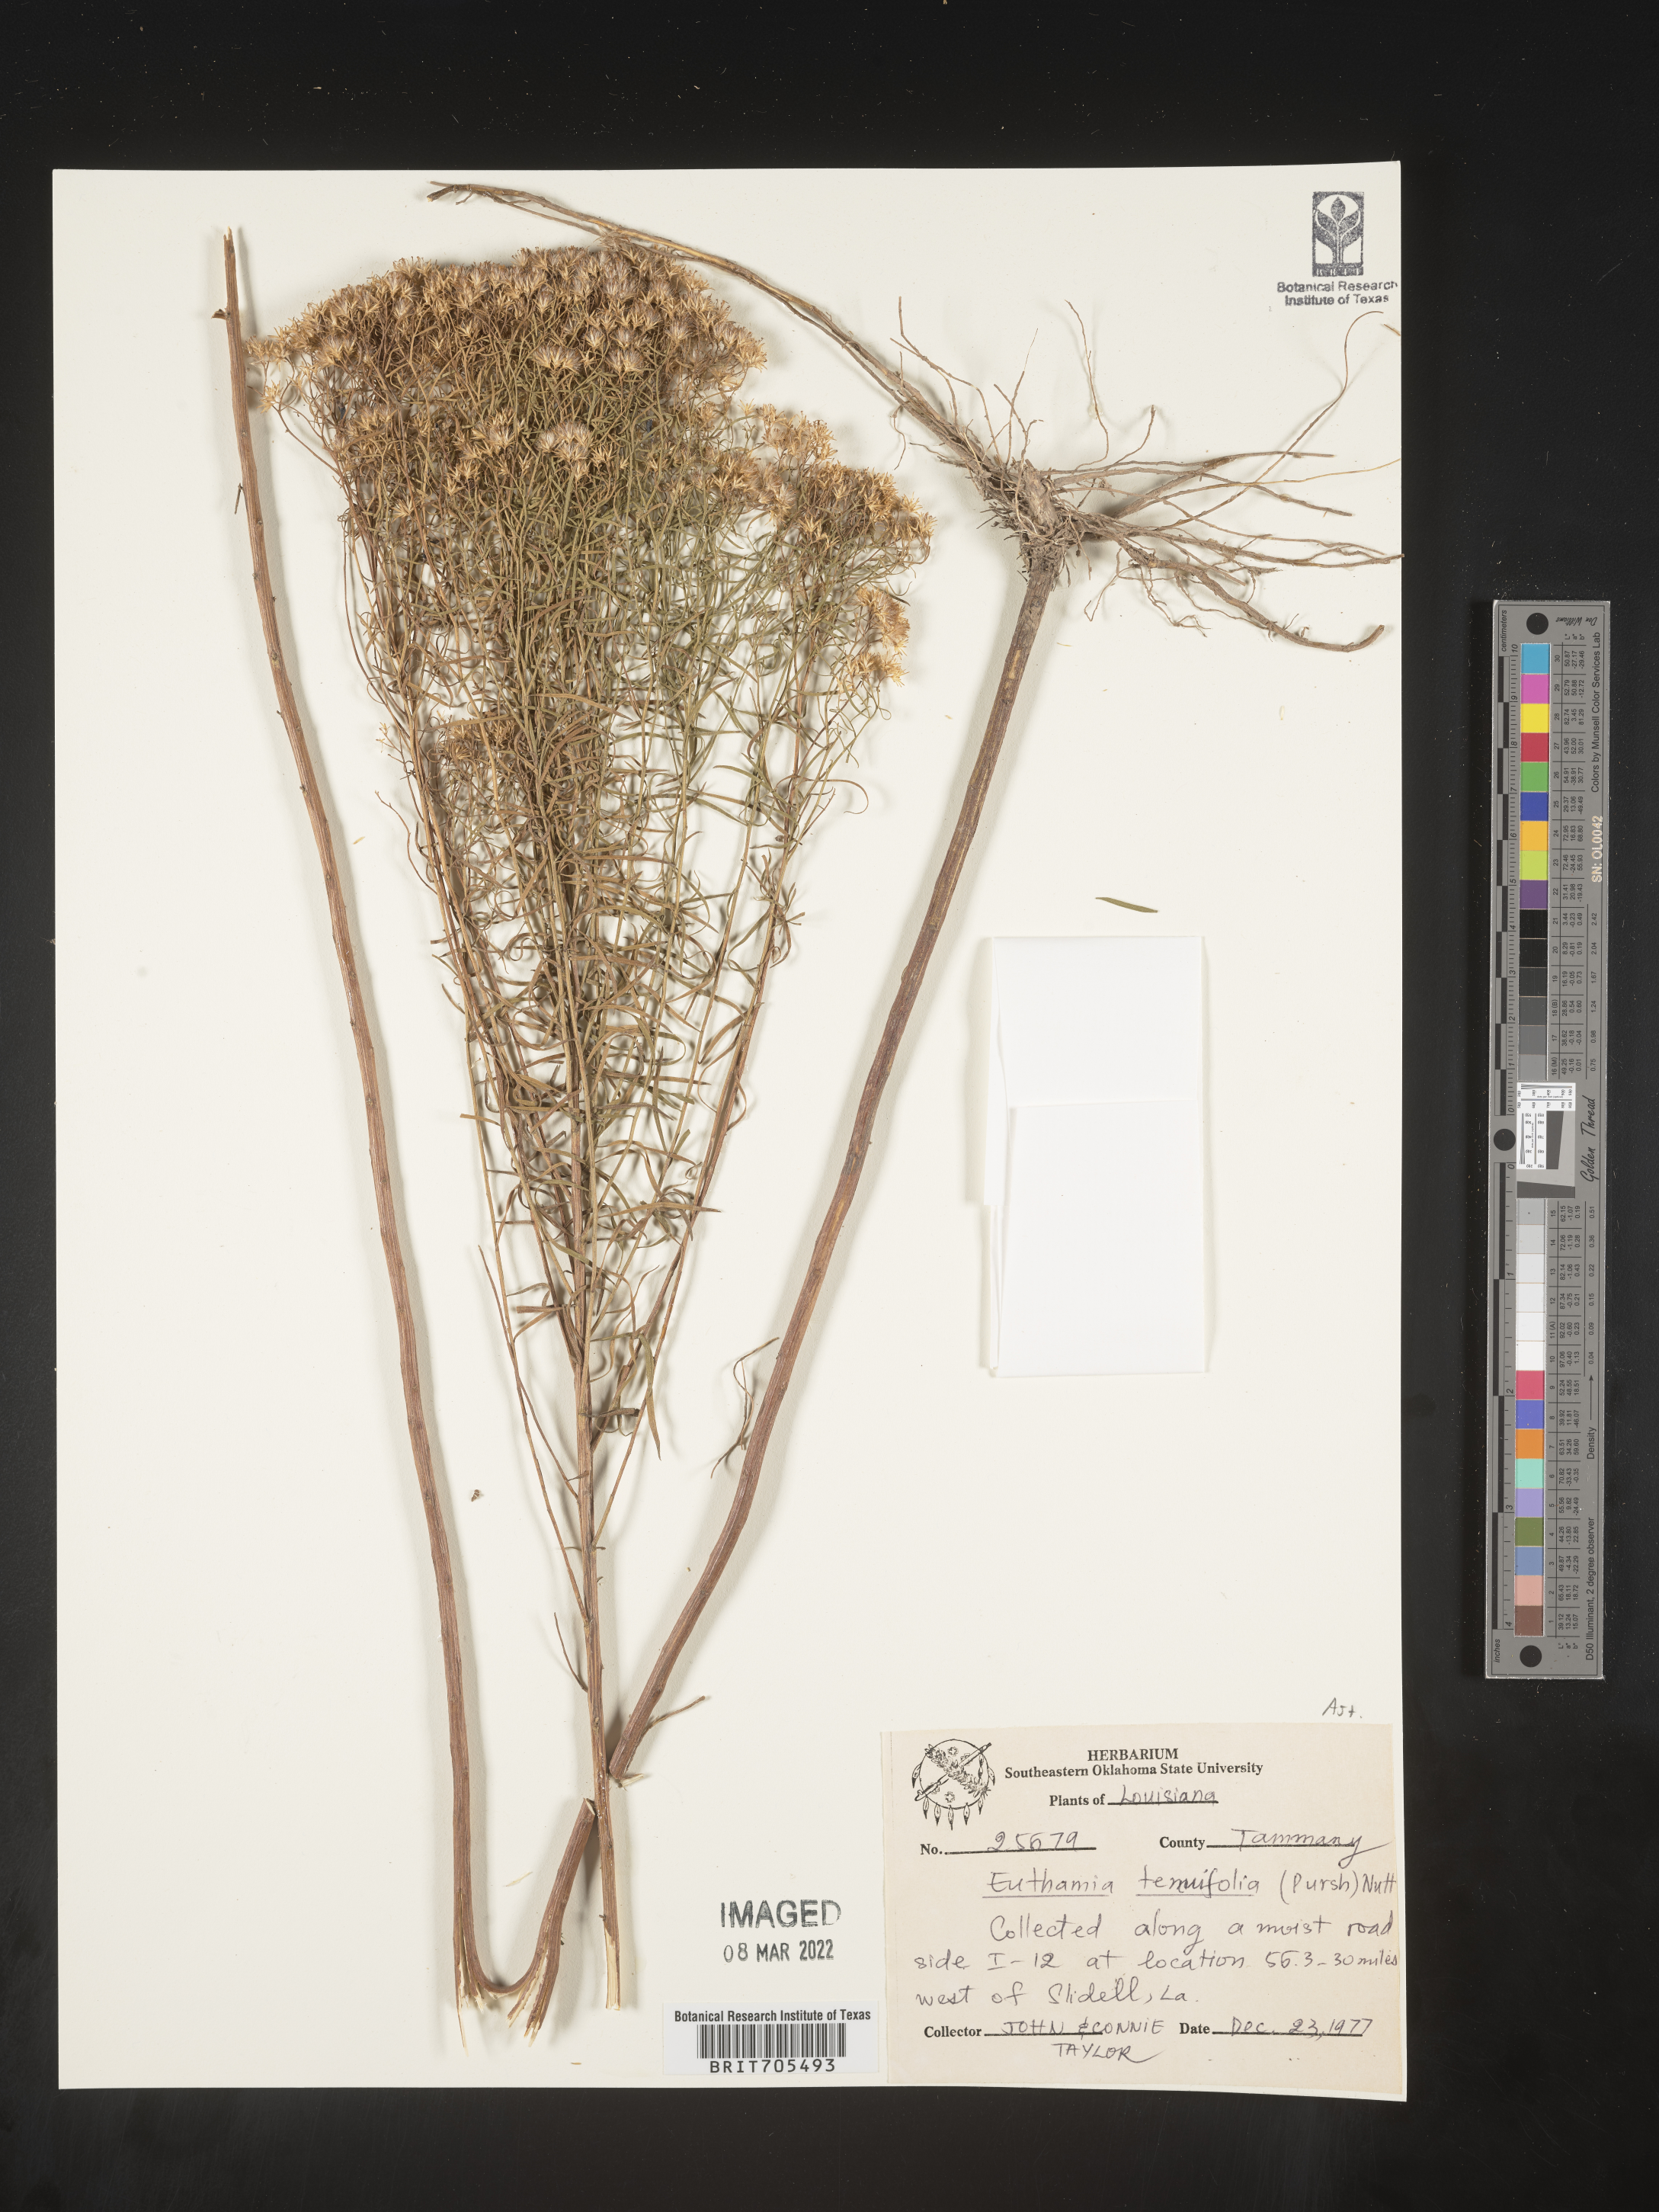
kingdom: Plantae
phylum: Tracheophyta
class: Magnoliopsida
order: Asterales
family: Asteraceae
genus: Euthamia
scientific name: Euthamia caroliniana
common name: Coastal plain goldentop
